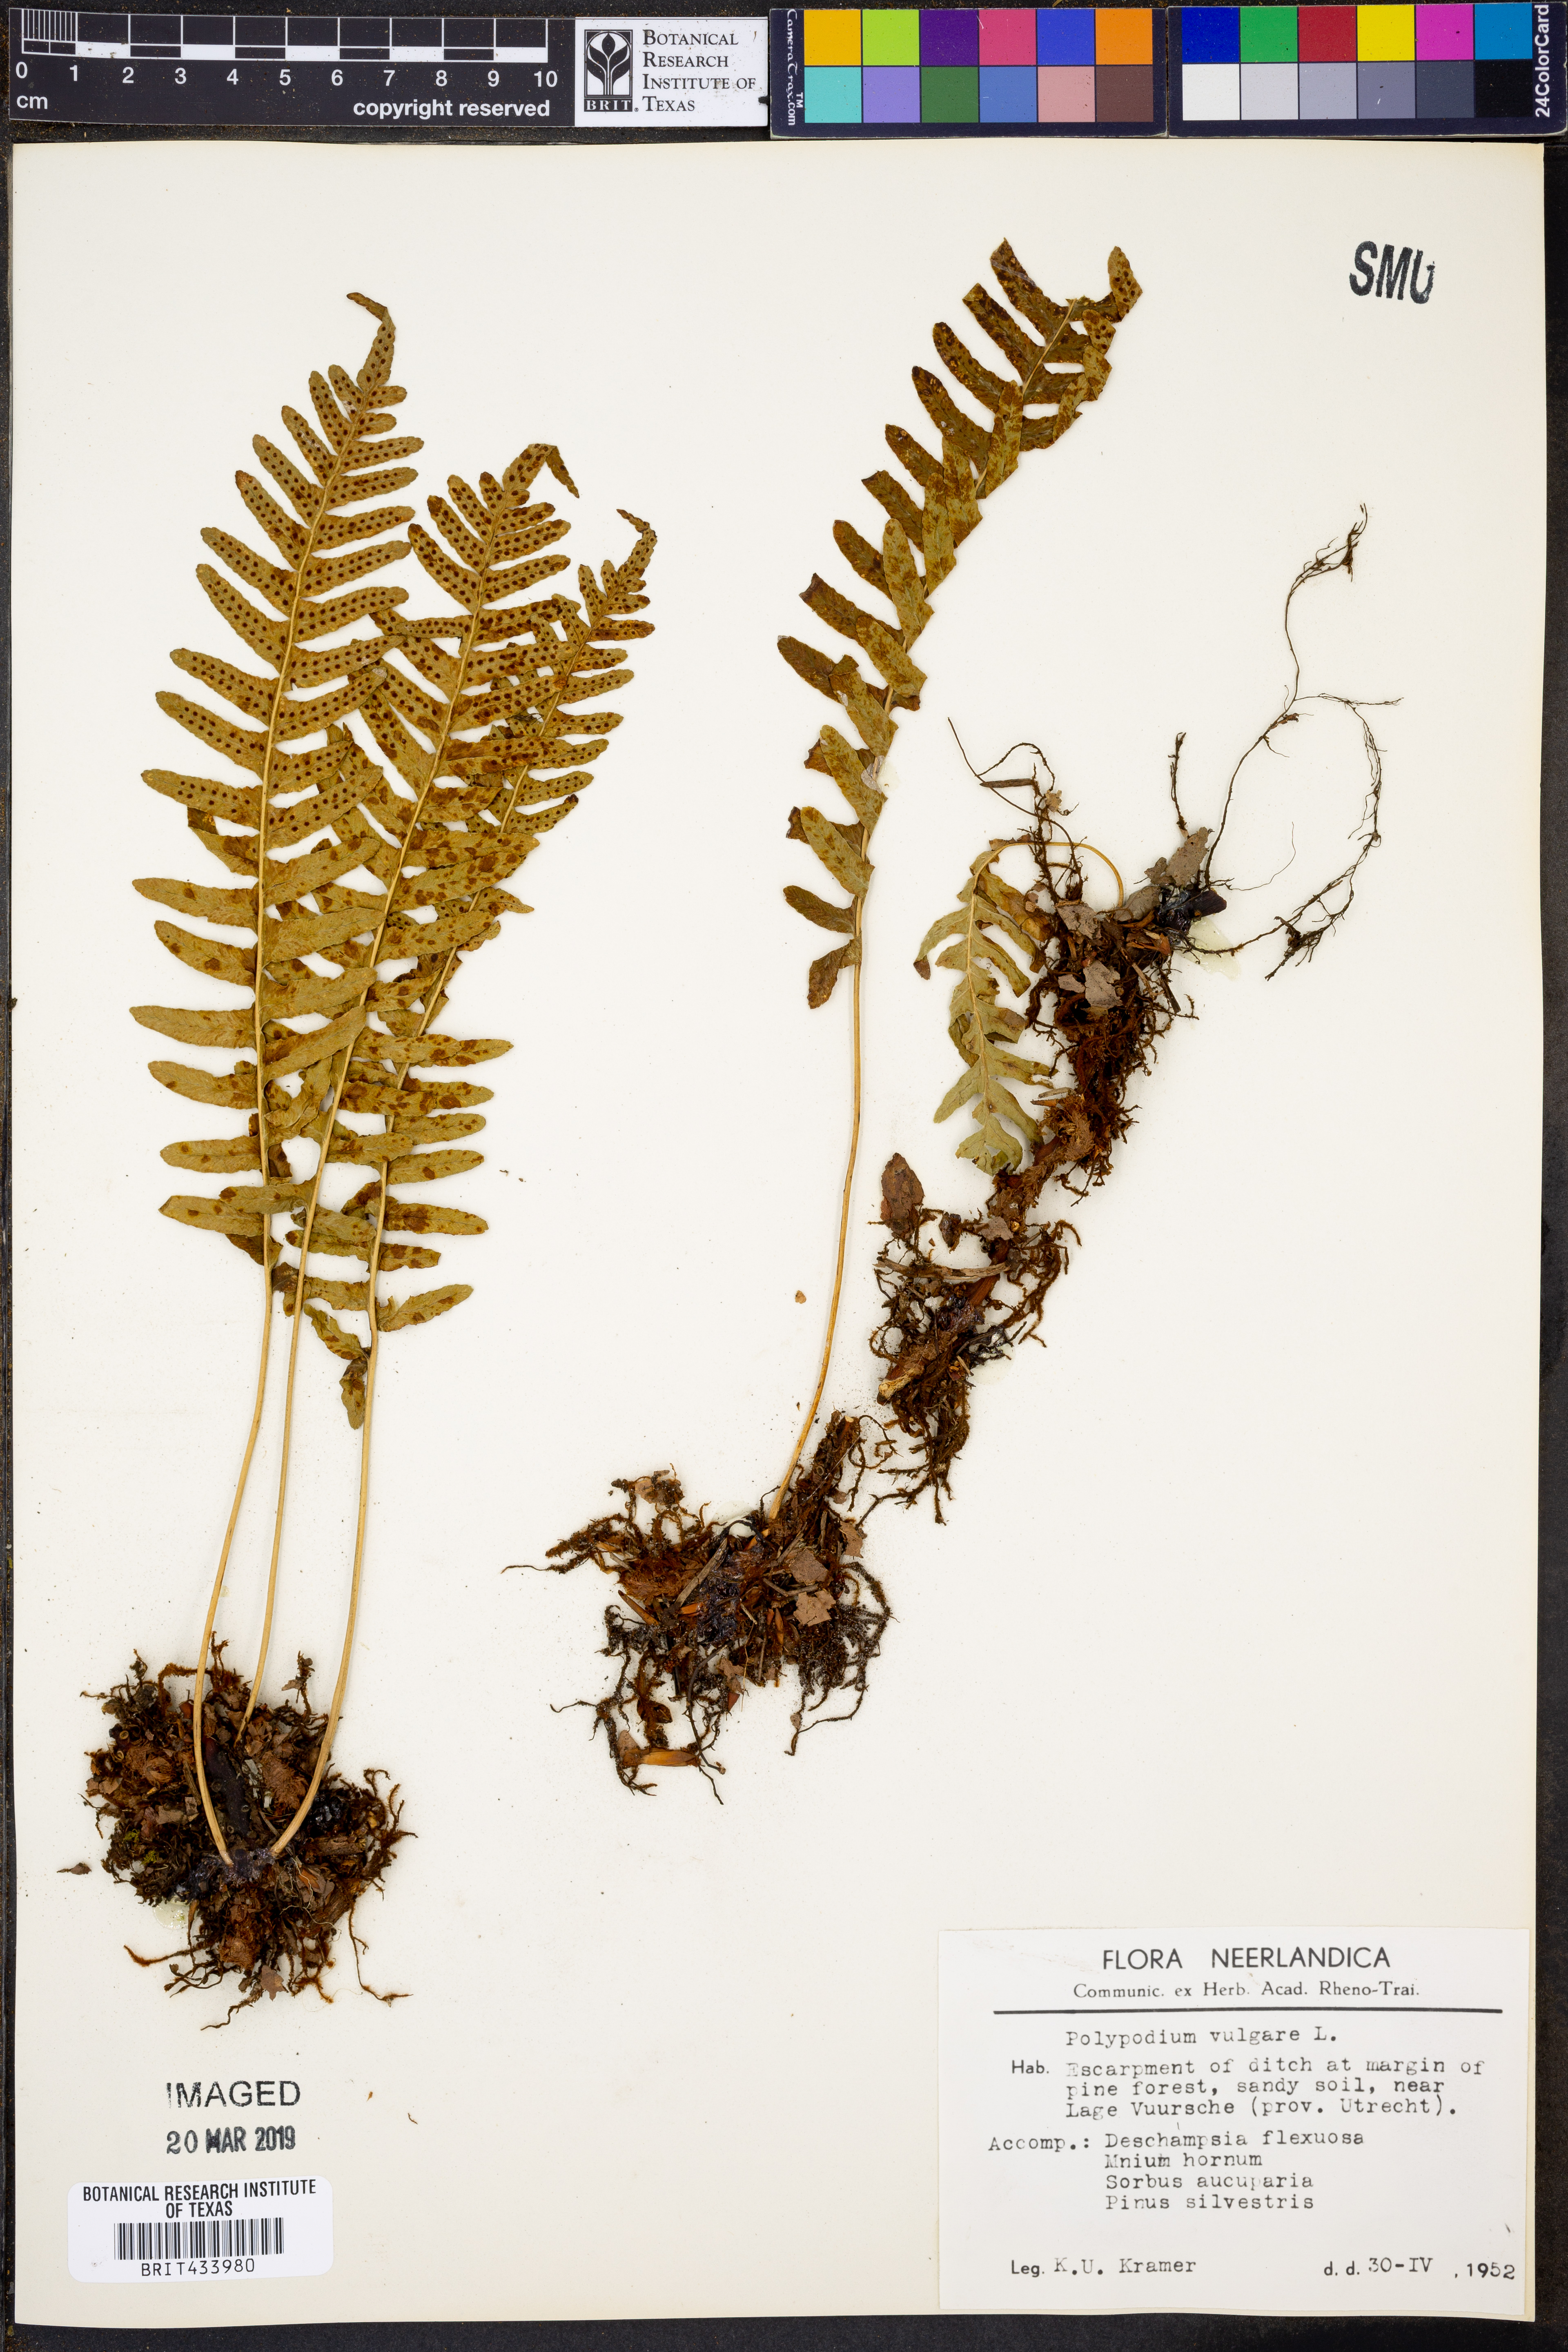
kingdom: Plantae
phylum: Tracheophyta
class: Polypodiopsida
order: Polypodiales
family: Polypodiaceae
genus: Polypodium
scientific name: Polypodium vulgare
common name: Common polypody
